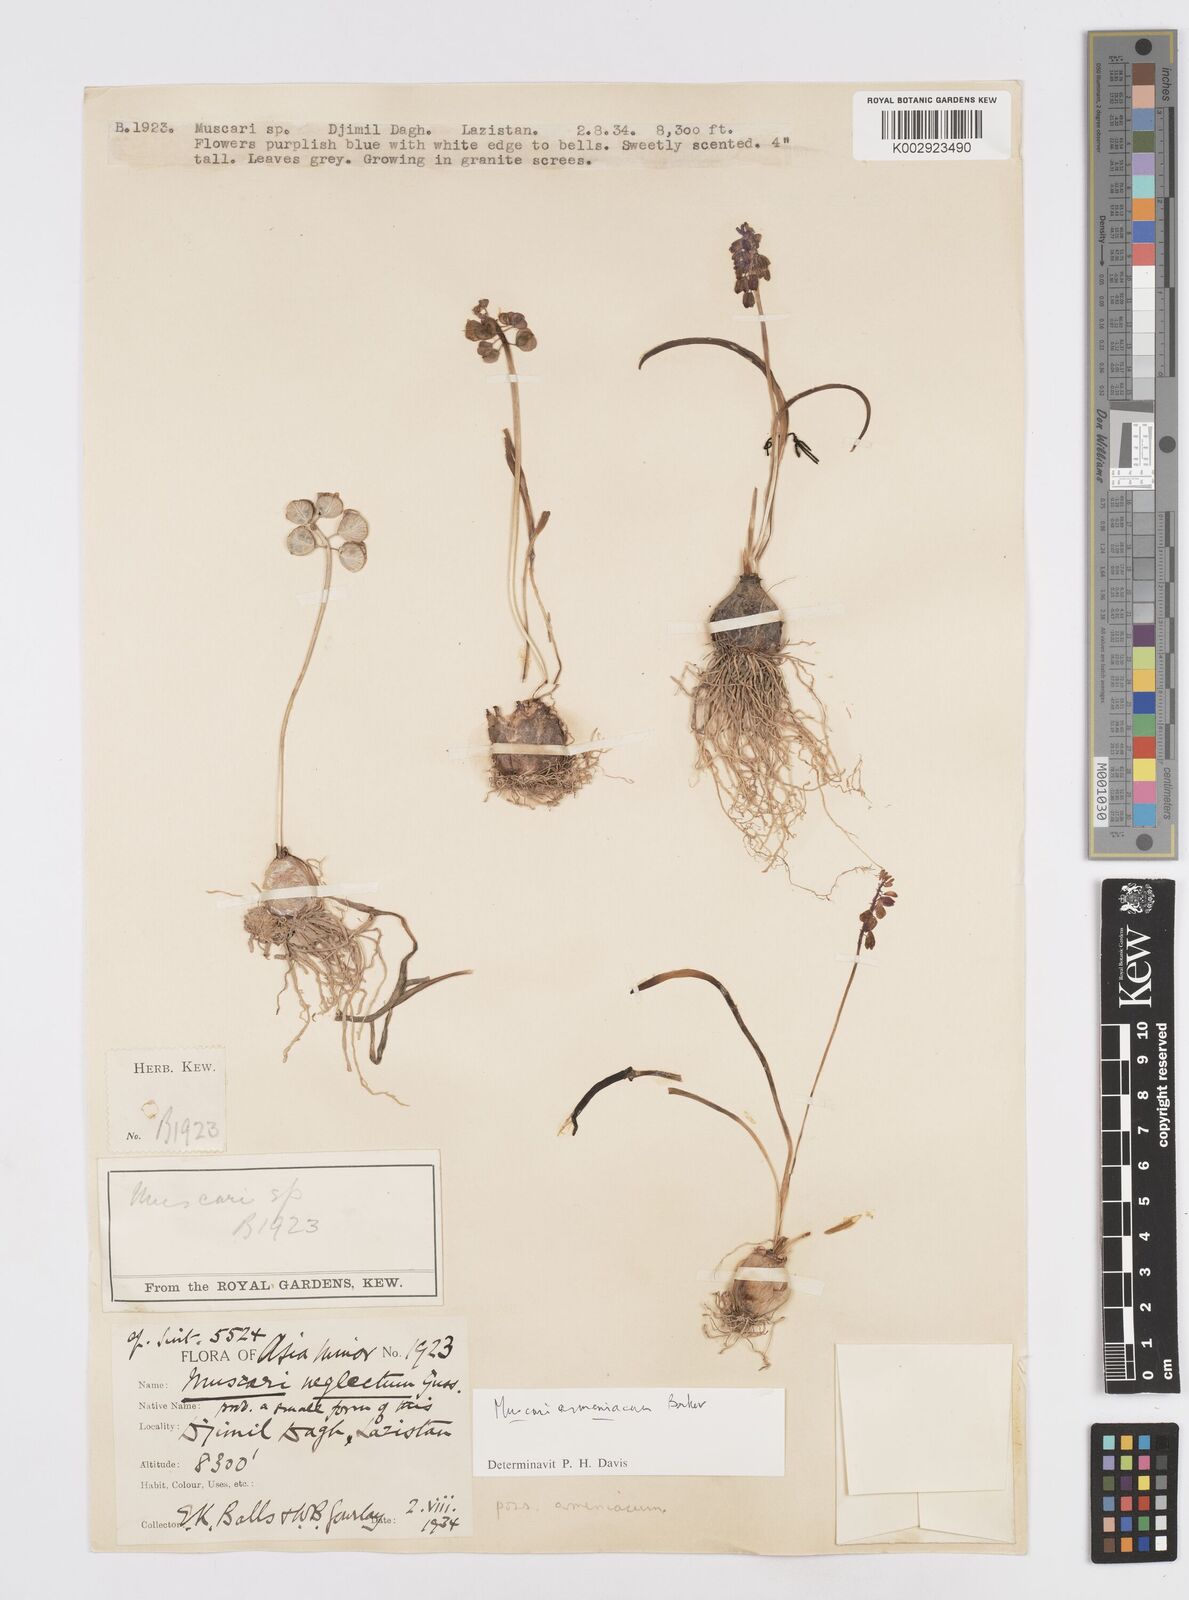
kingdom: Plantae
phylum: Tracheophyta
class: Liliopsida
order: Asparagales
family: Asparagaceae
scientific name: Asparagaceae
